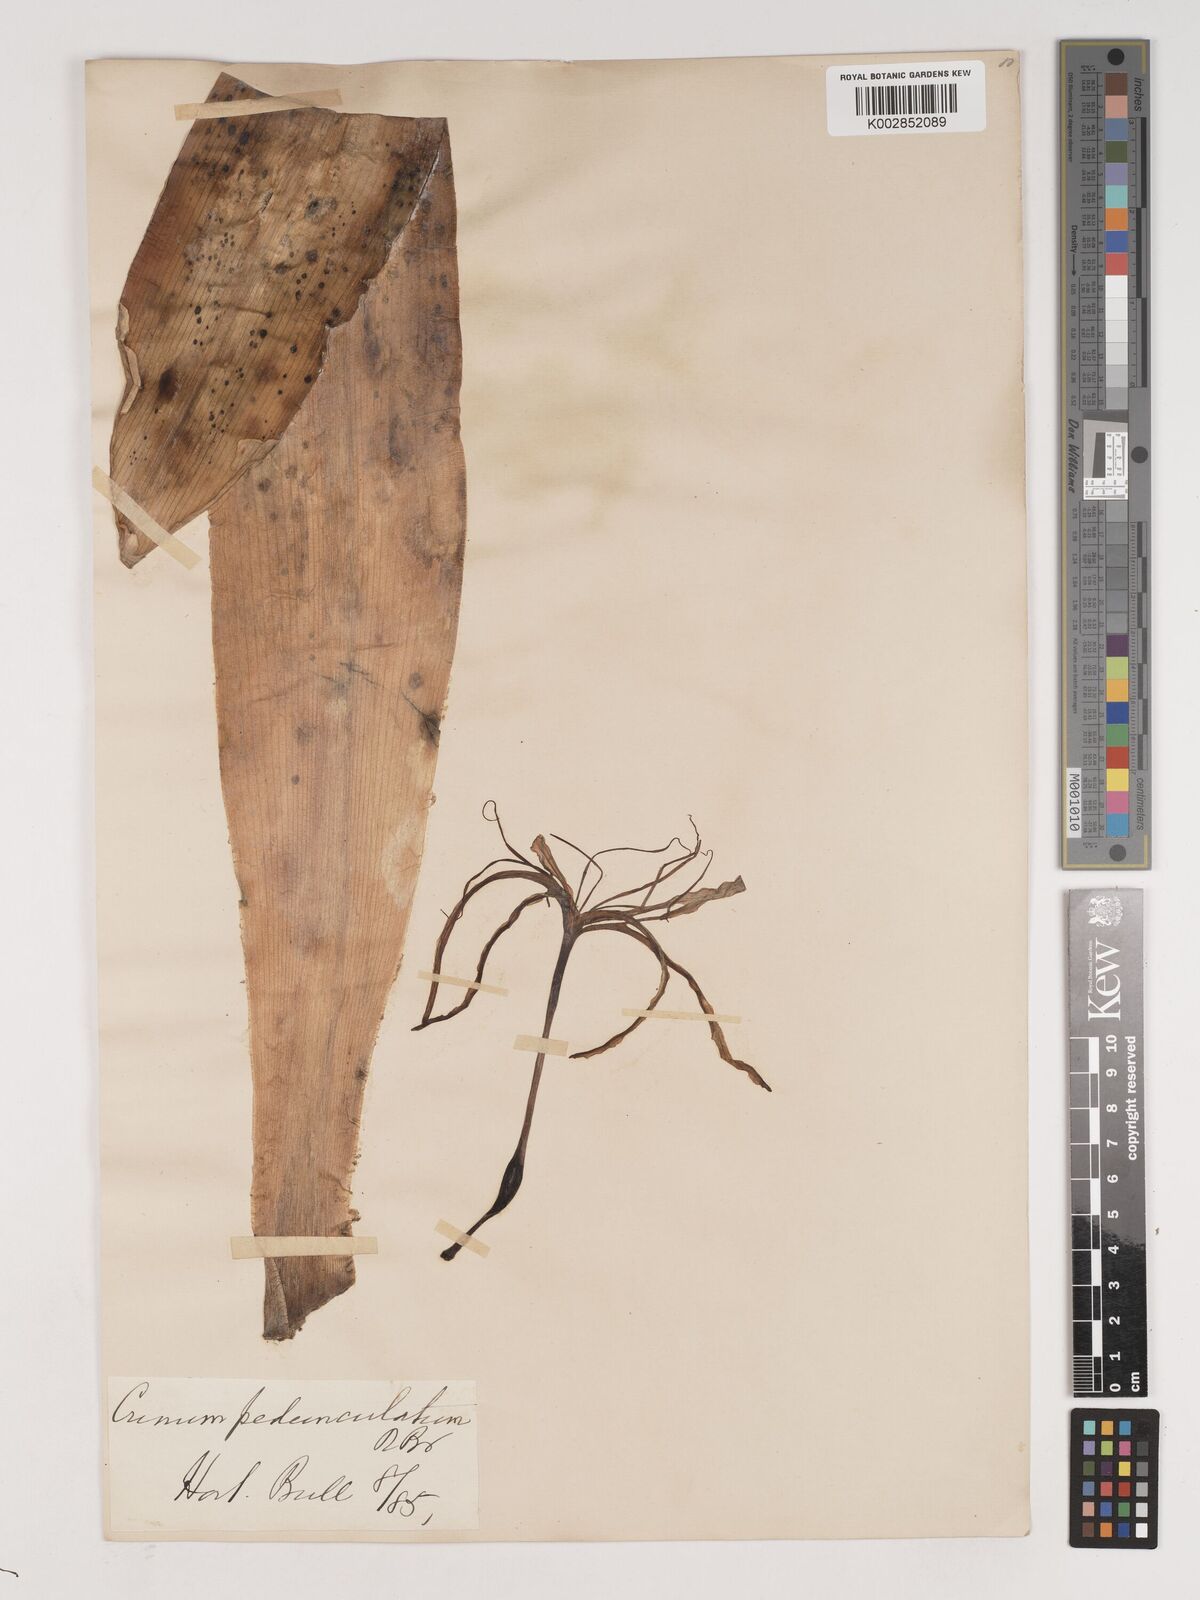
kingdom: Plantae
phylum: Tracheophyta
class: Liliopsida
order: Asparagales
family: Amaryllidaceae
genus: Crinum
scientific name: Crinum asiaticum
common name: Poisonbulb
